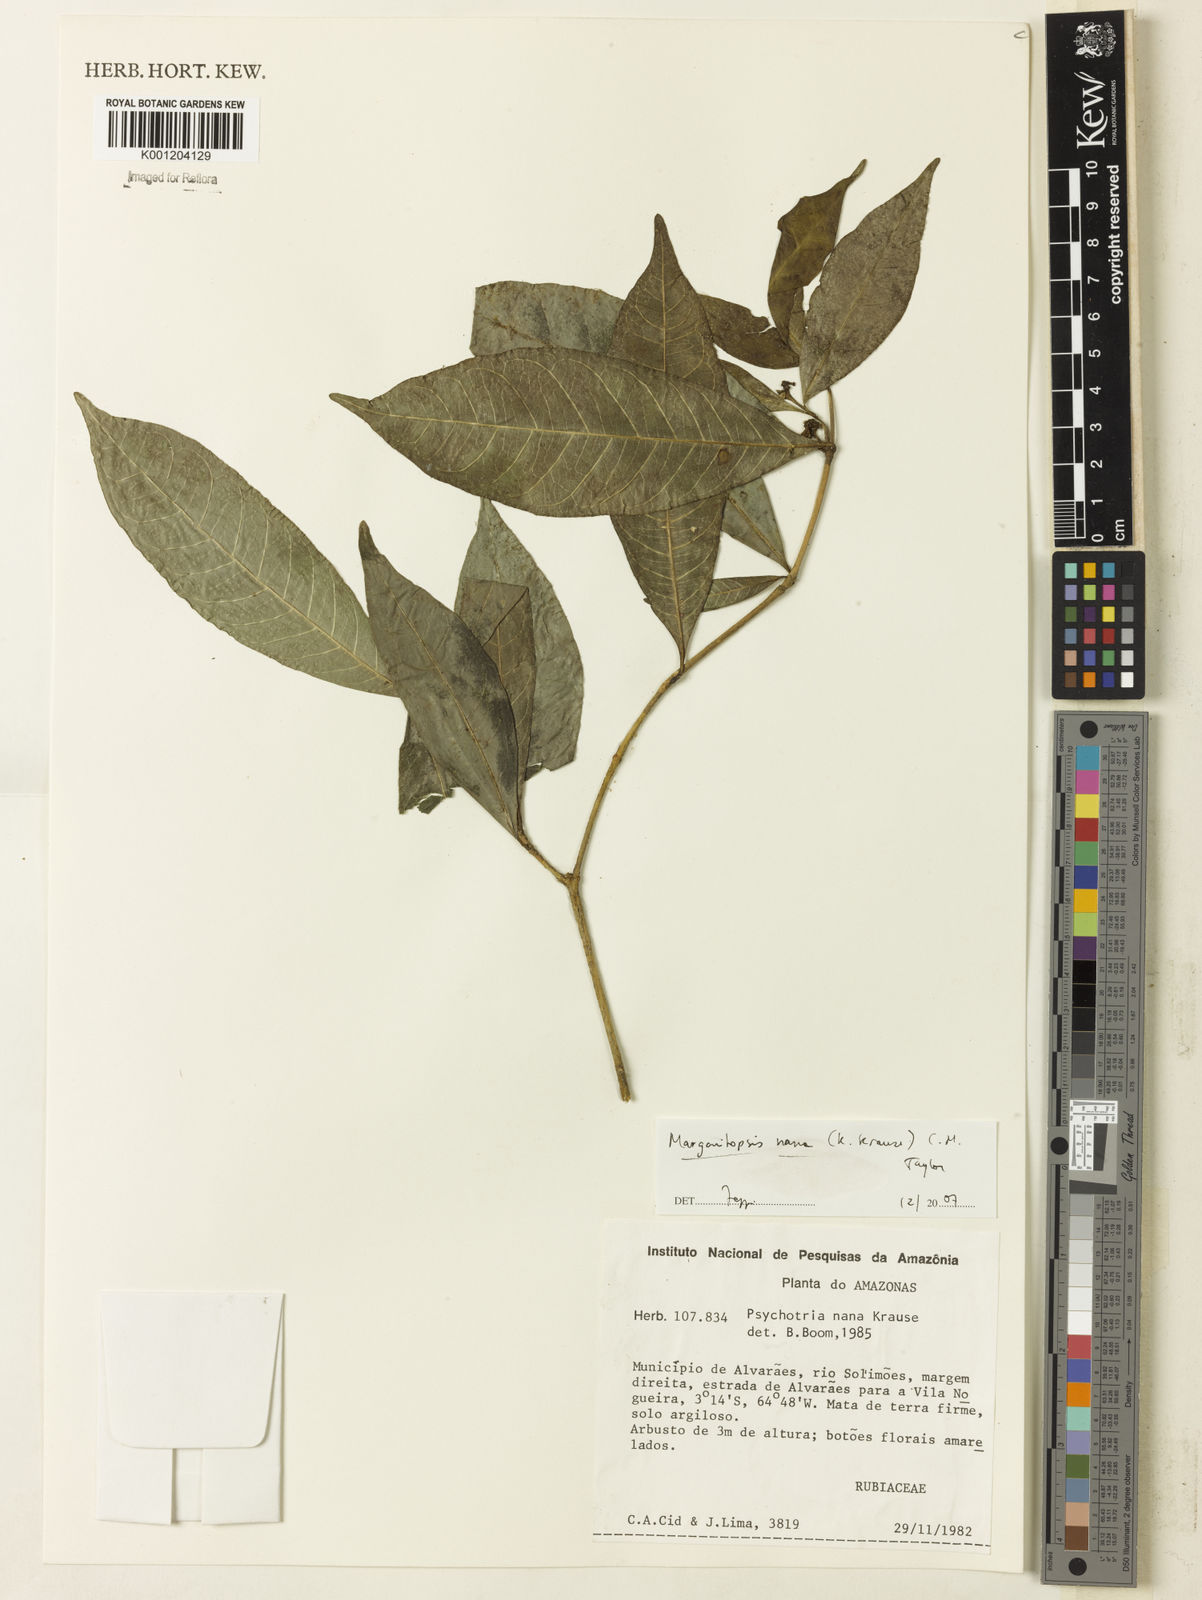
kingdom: Plantae
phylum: Tracheophyta
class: Magnoliopsida
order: Gentianales
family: Rubiaceae
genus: Eumachia
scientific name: Eumachia nana
